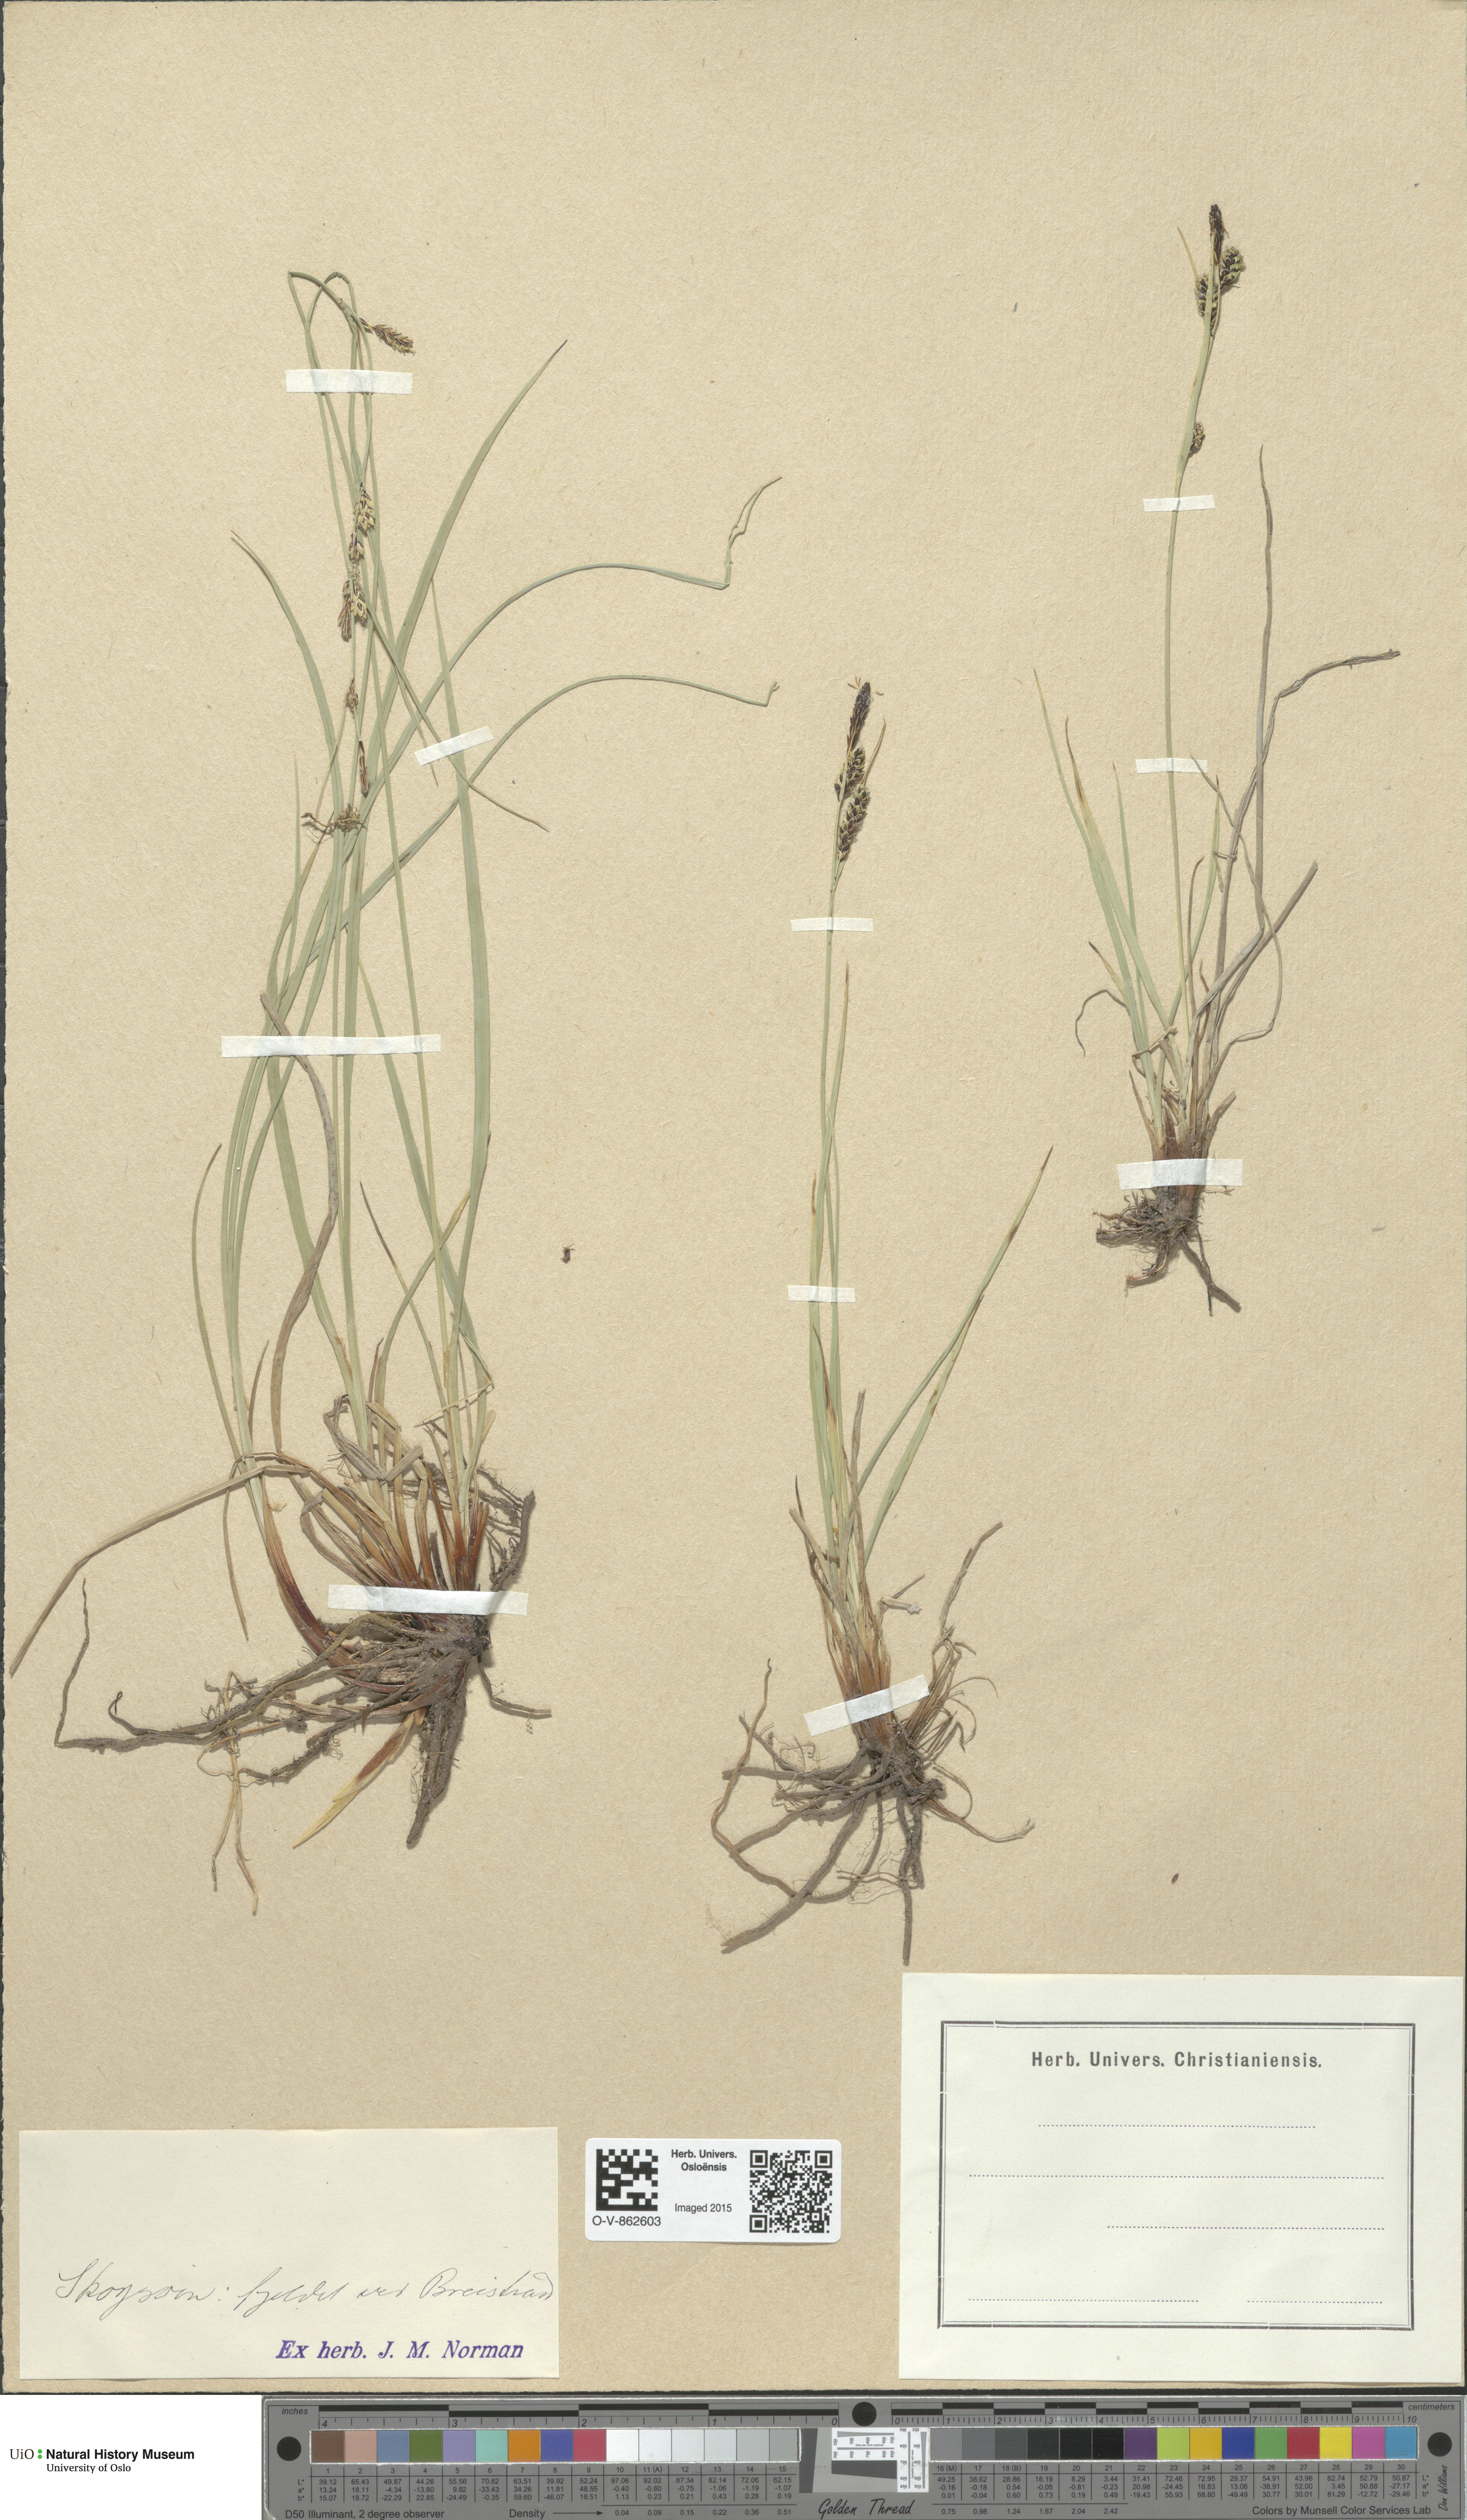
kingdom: Plantae
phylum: Tracheophyta
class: Liliopsida
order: Poales
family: Cyperaceae
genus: Carex
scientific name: Carex nigra
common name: Common sedge
